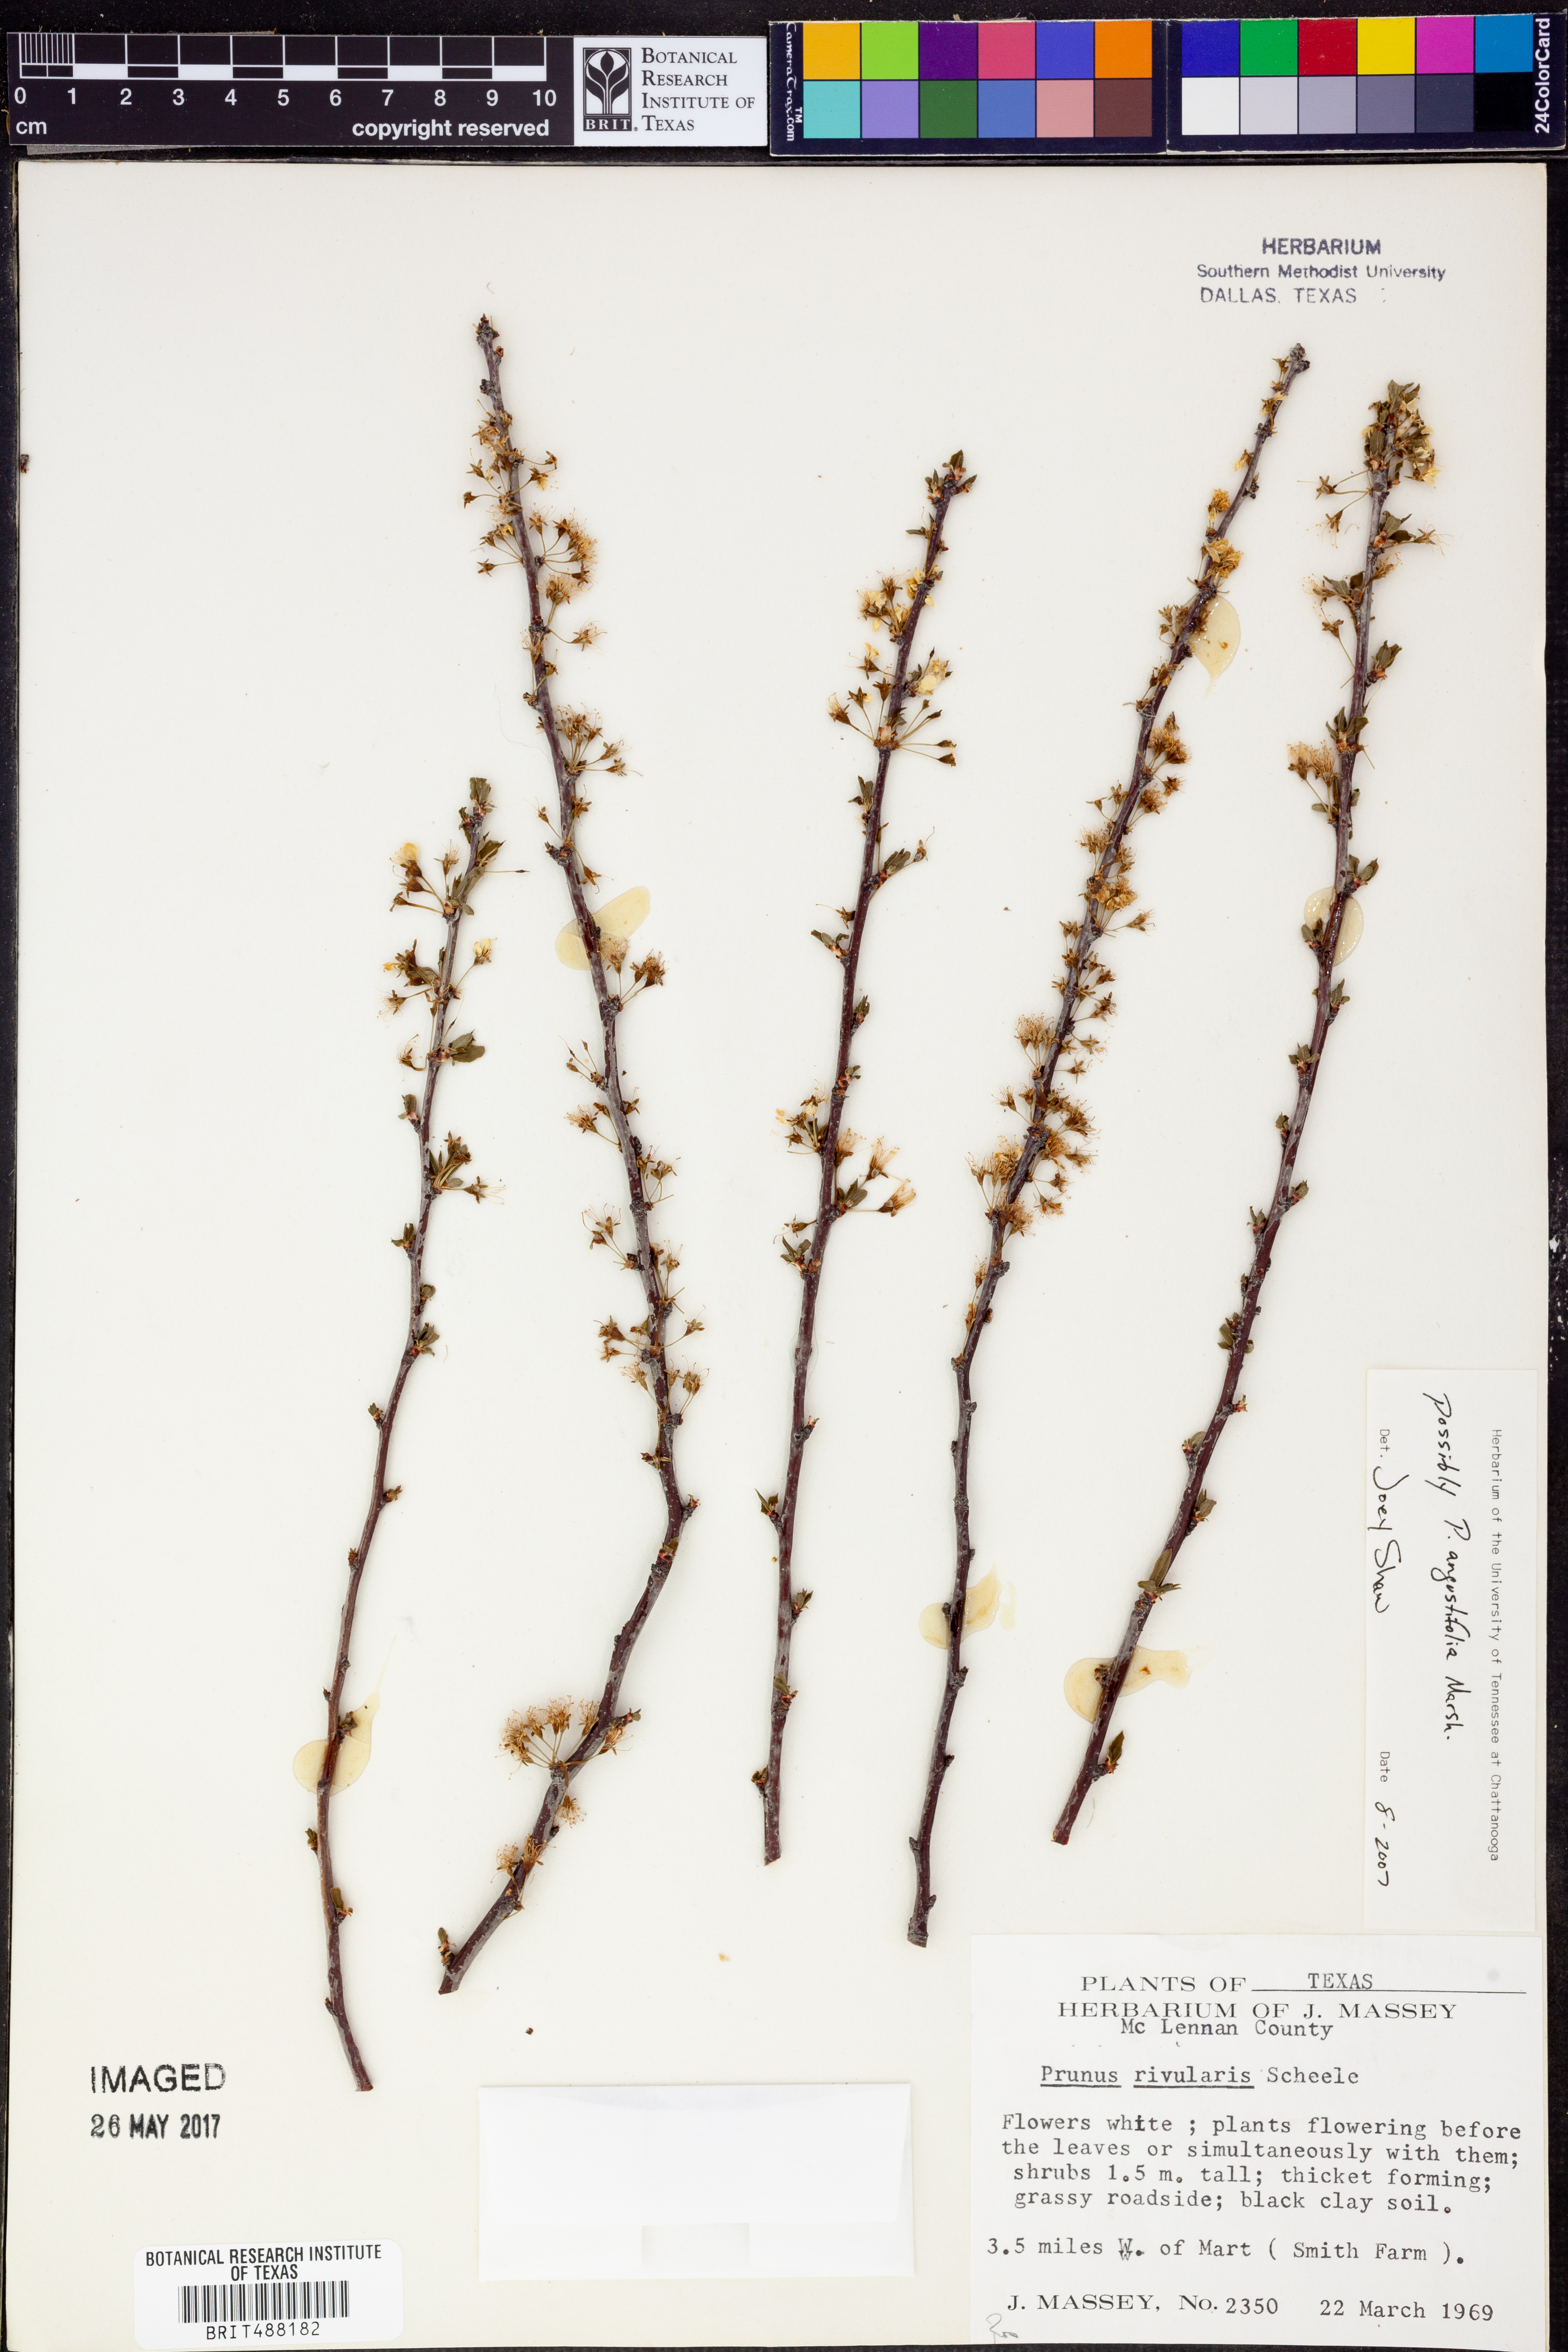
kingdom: Plantae
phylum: Tracheophyta
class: Magnoliopsida
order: Rosales
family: Rosaceae
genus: Prunus
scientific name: Prunus angustifolia
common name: Cherokee plum
